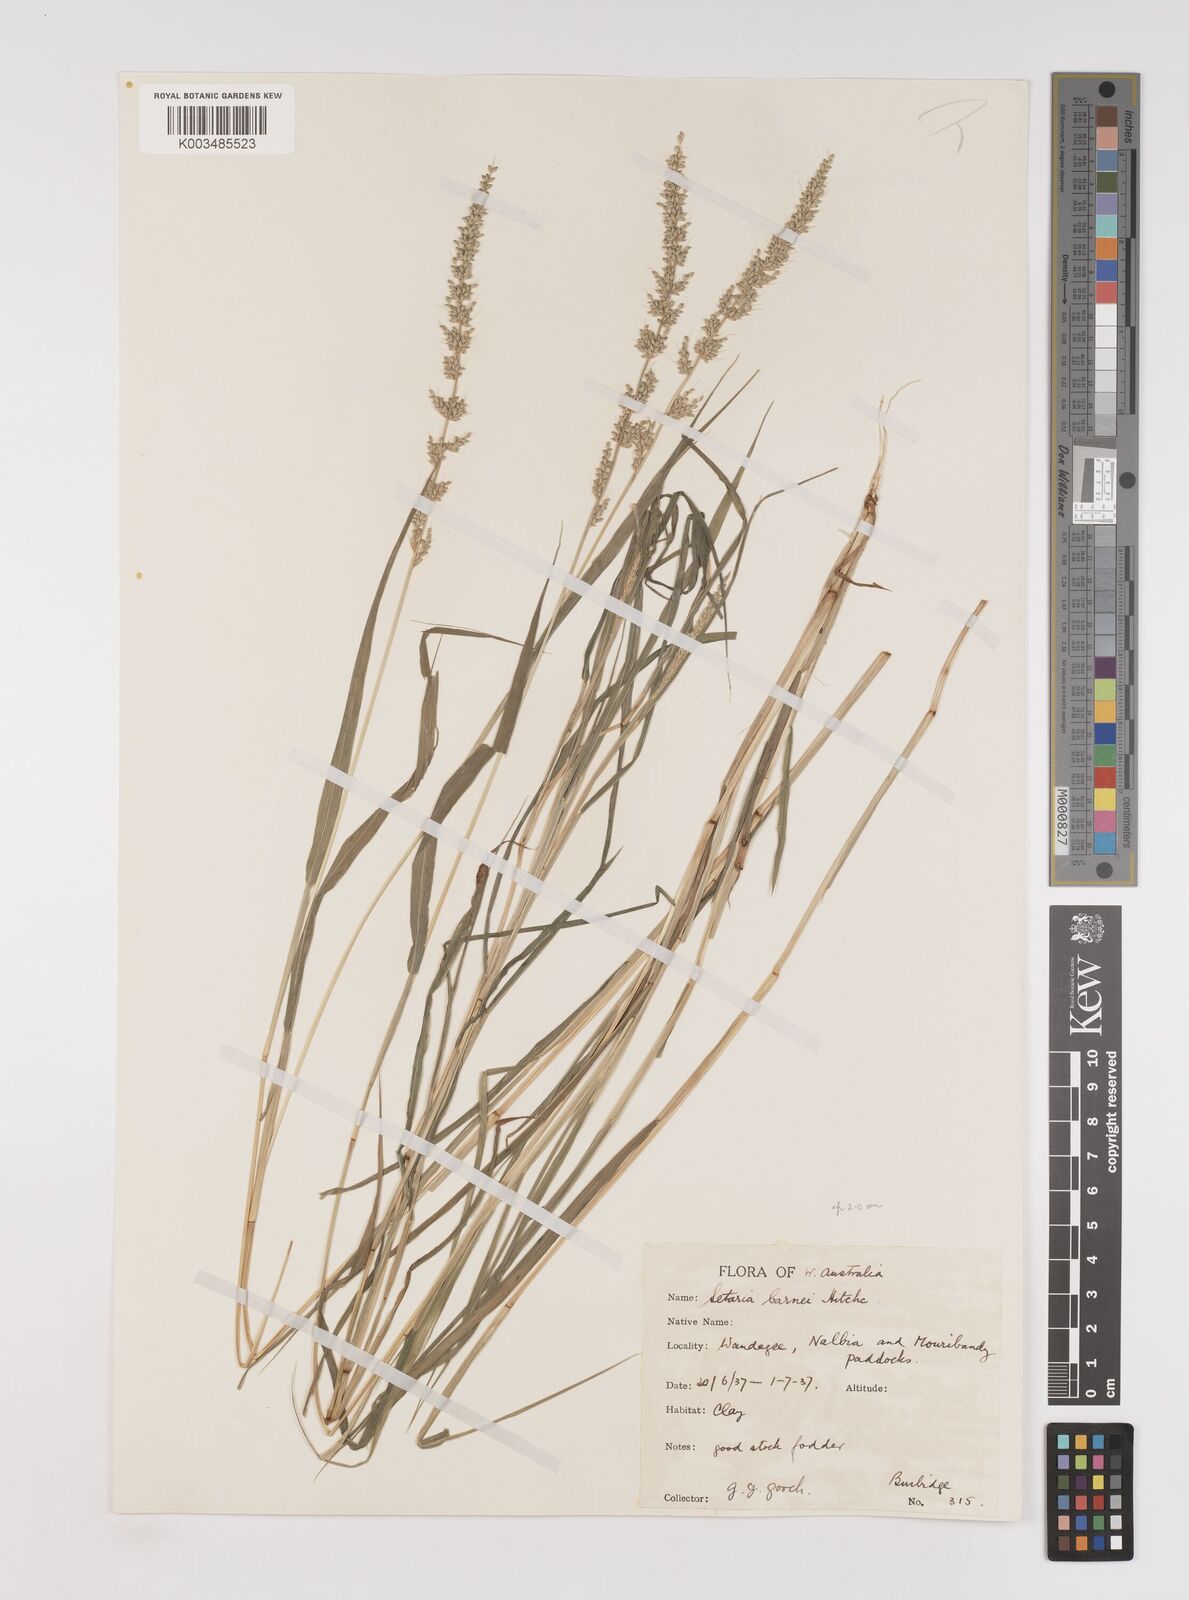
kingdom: Plantae
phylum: Tracheophyta
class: Liliopsida
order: Poales
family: Poaceae
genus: Setaria
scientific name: Setaria verticillata
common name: Hooked bristlegrass
